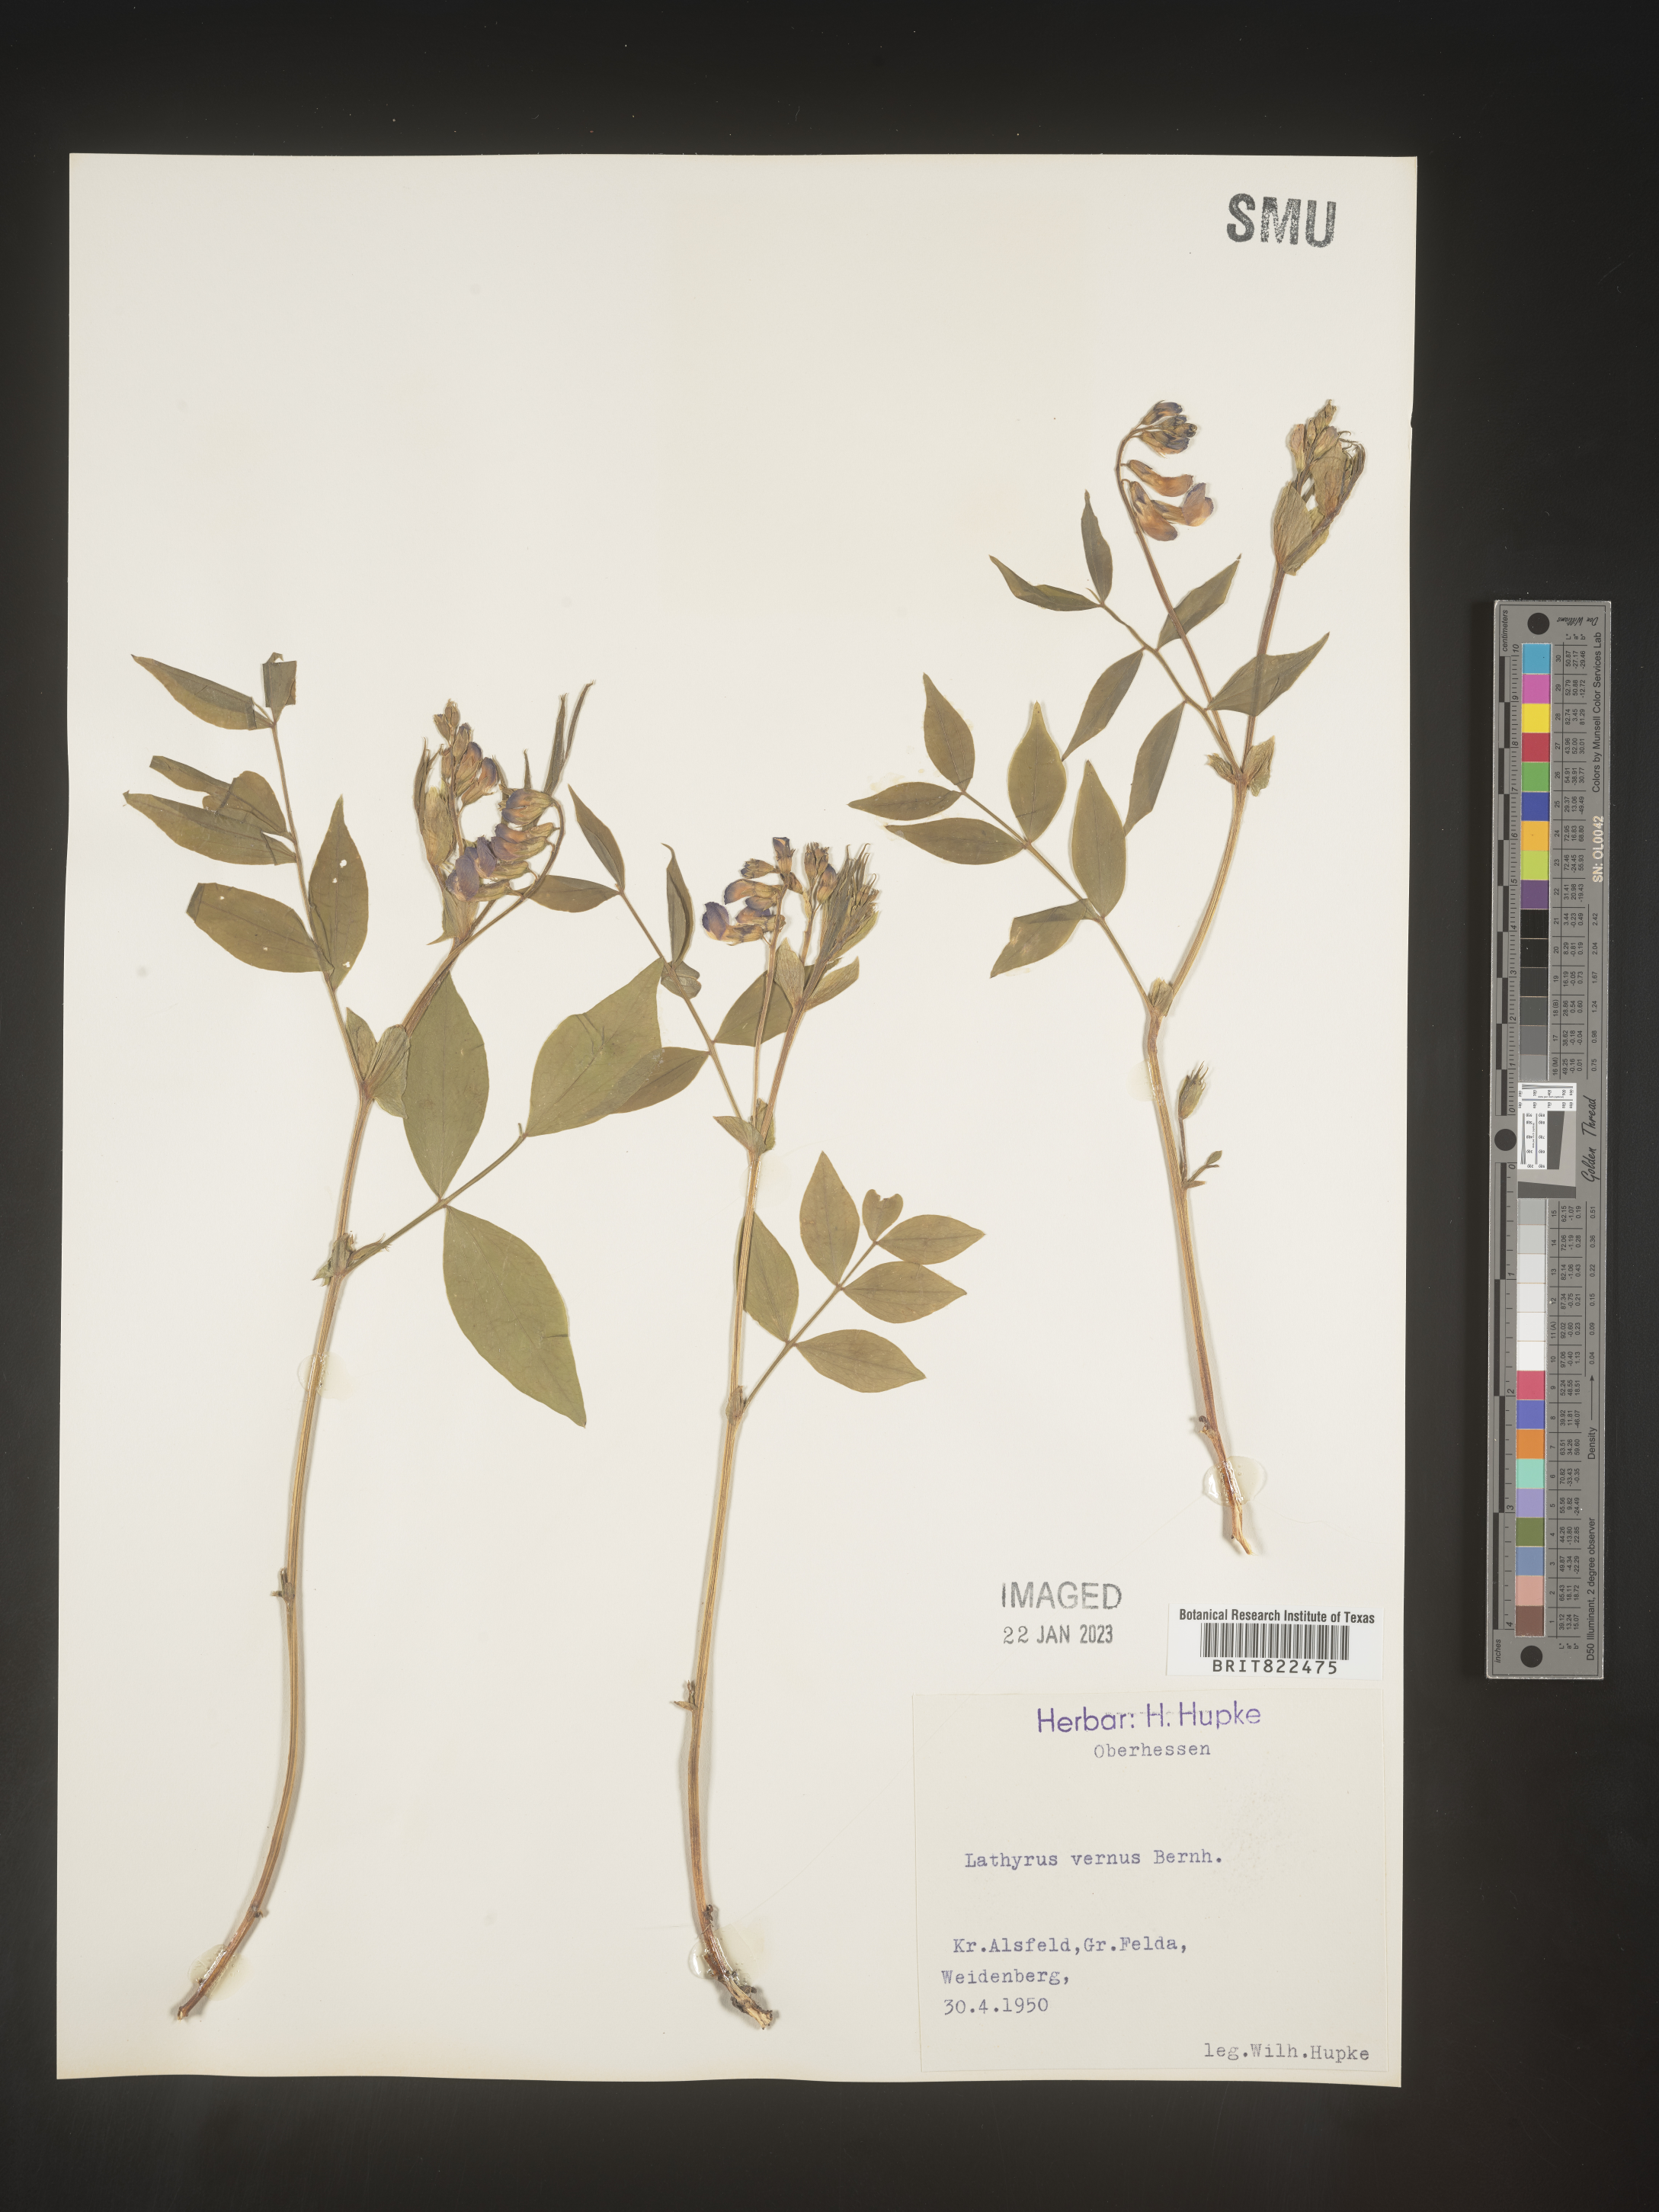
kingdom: Plantae
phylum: Tracheophyta
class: Magnoliopsida
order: Fabales
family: Fabaceae
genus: Lathyrus
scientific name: Lathyrus
